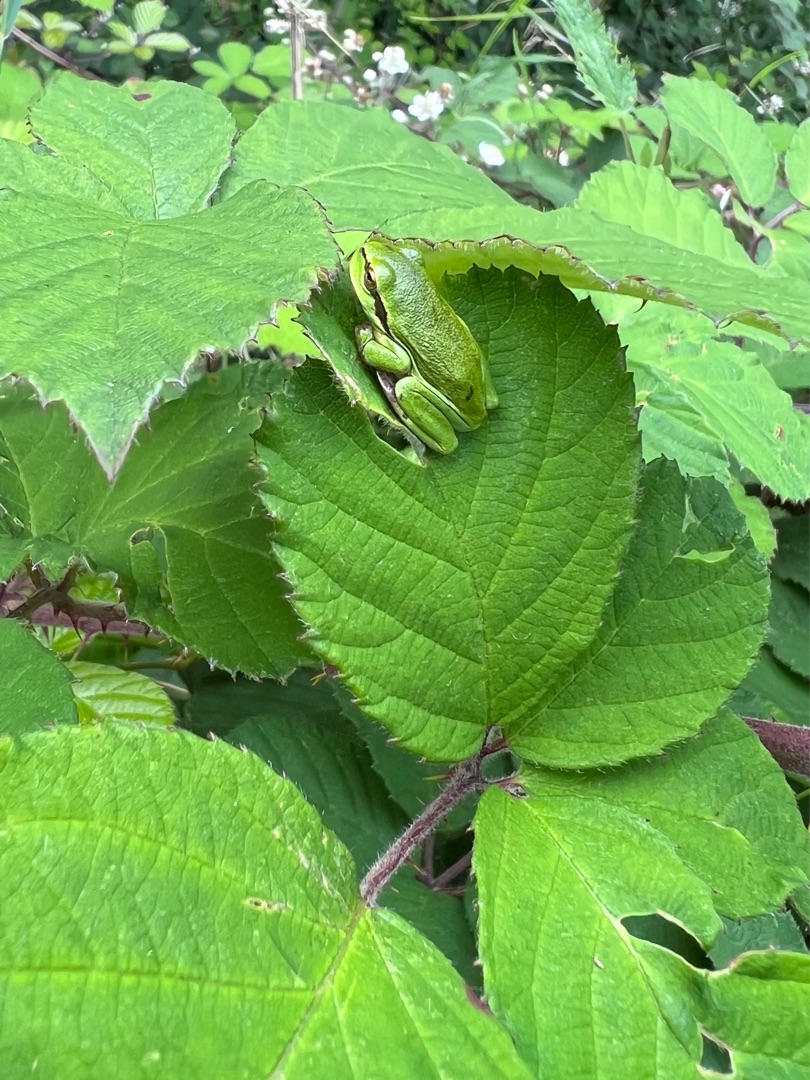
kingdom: Animalia
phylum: Chordata
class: Amphibia
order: Anura
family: Hylidae
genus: Hyla
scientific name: Hyla arborea
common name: Løvfrø
